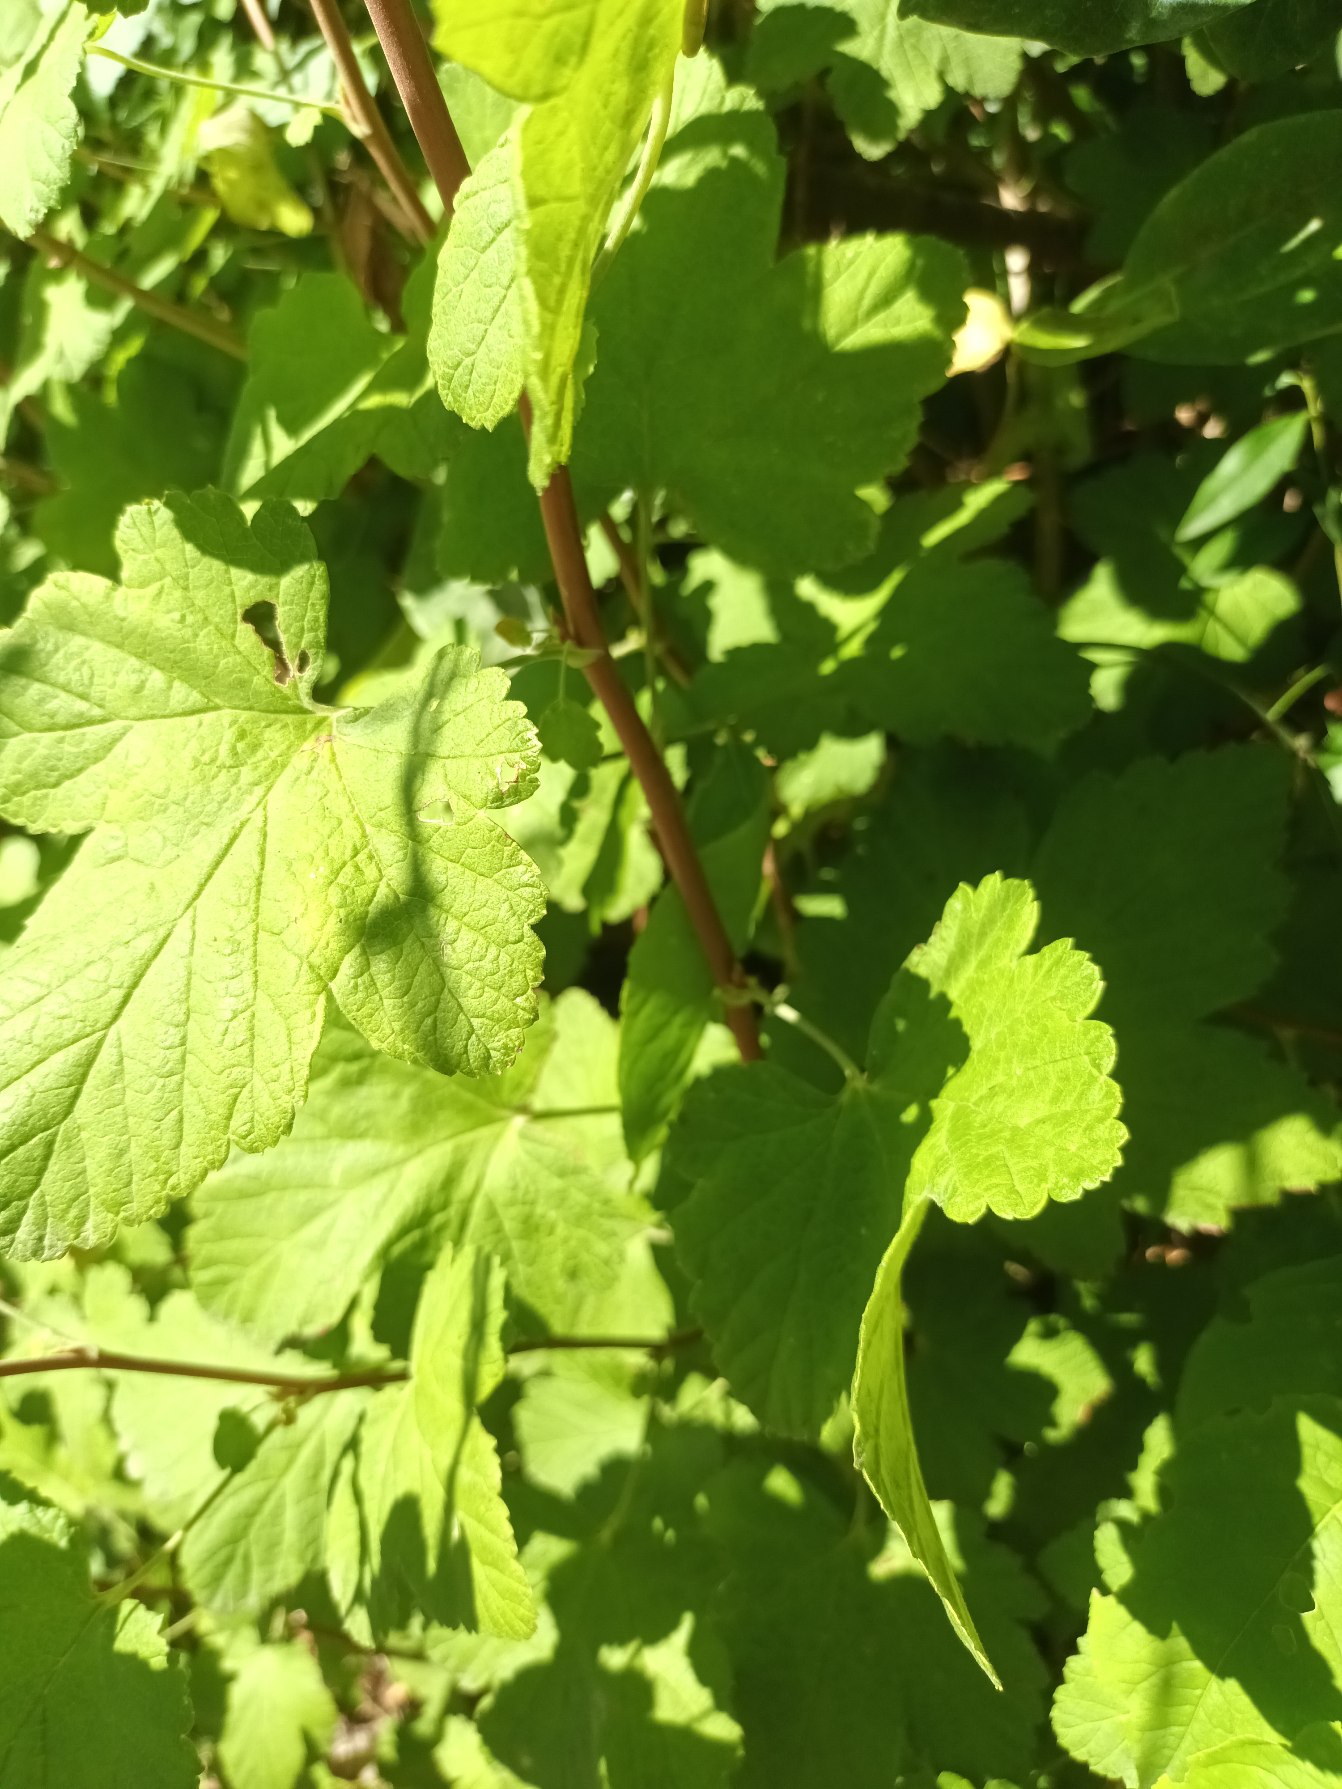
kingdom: Plantae
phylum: Tracheophyta
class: Magnoliopsida
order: Saxifragales
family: Grossulariaceae
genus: Ribes
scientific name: Ribes sanguineum
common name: Blod-ribs
